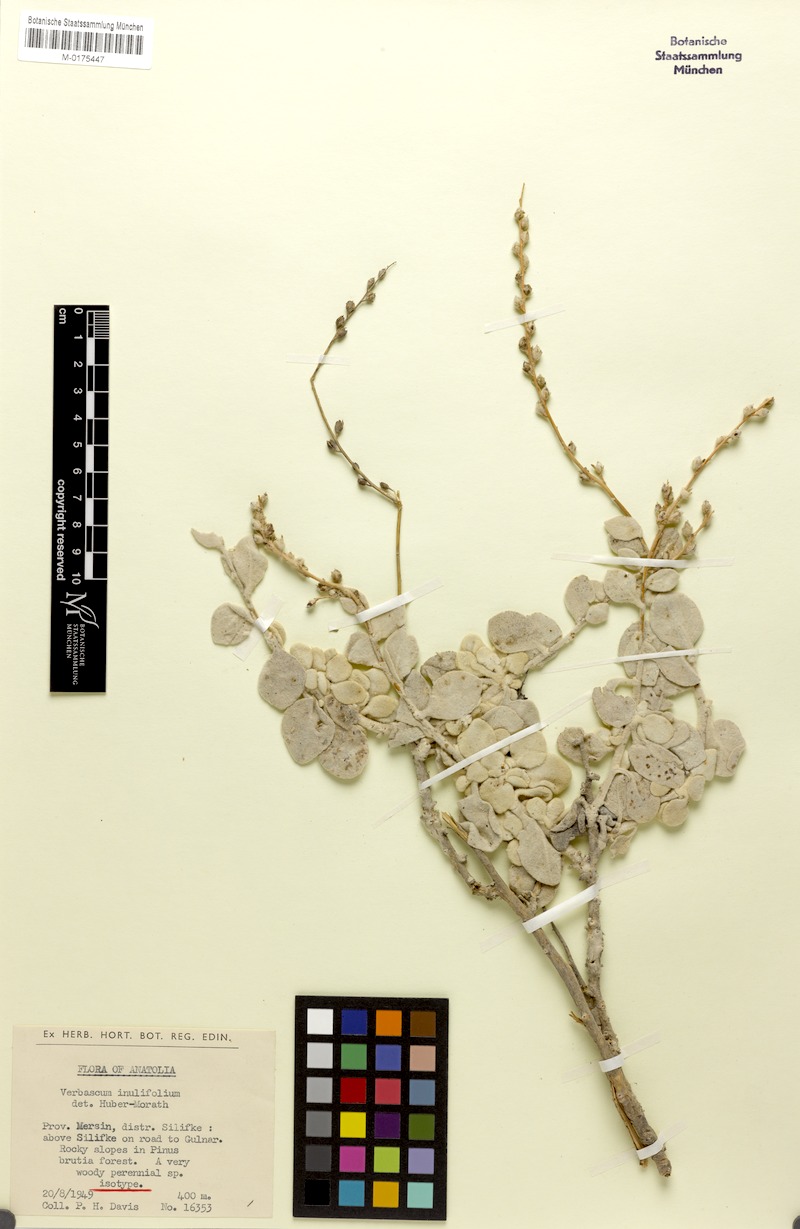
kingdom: Plantae
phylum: Tracheophyta
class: Magnoliopsida
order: Lamiales
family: Scrophulariaceae
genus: Verbascum
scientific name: Verbascum inulifolium
